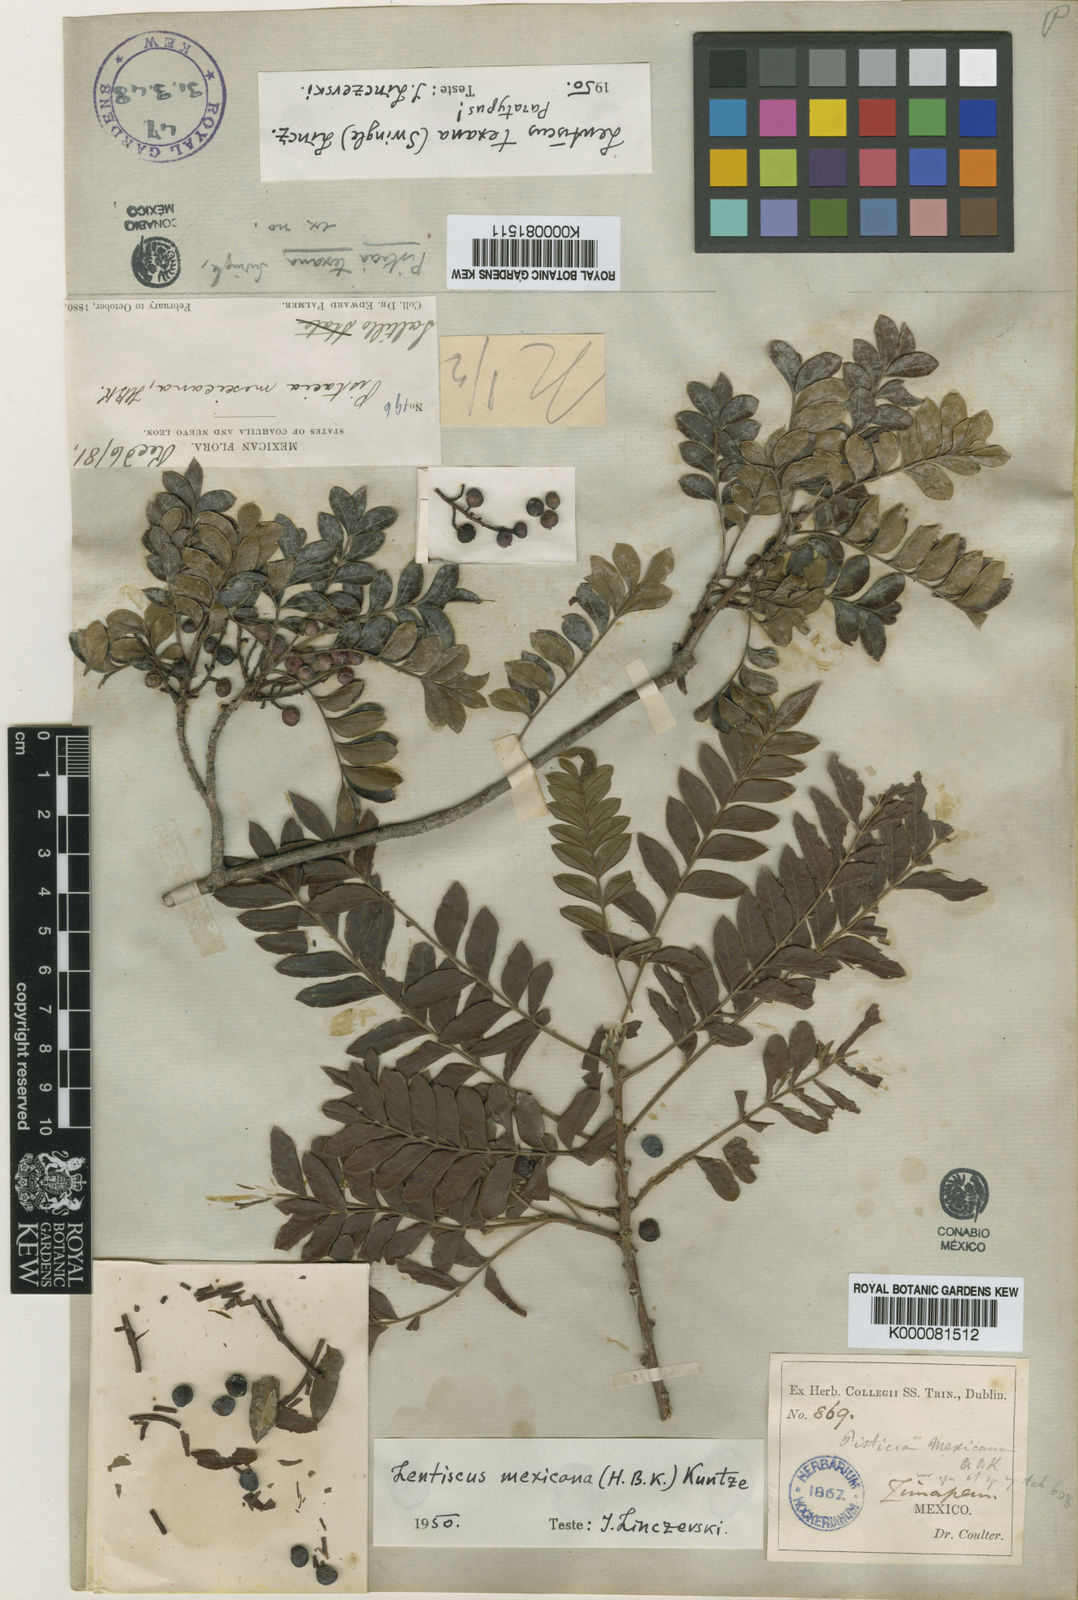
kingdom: Plantae
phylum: Tracheophyta
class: Magnoliopsida
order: Sapindales
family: Anacardiaceae
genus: Pistacia
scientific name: Pistacia
